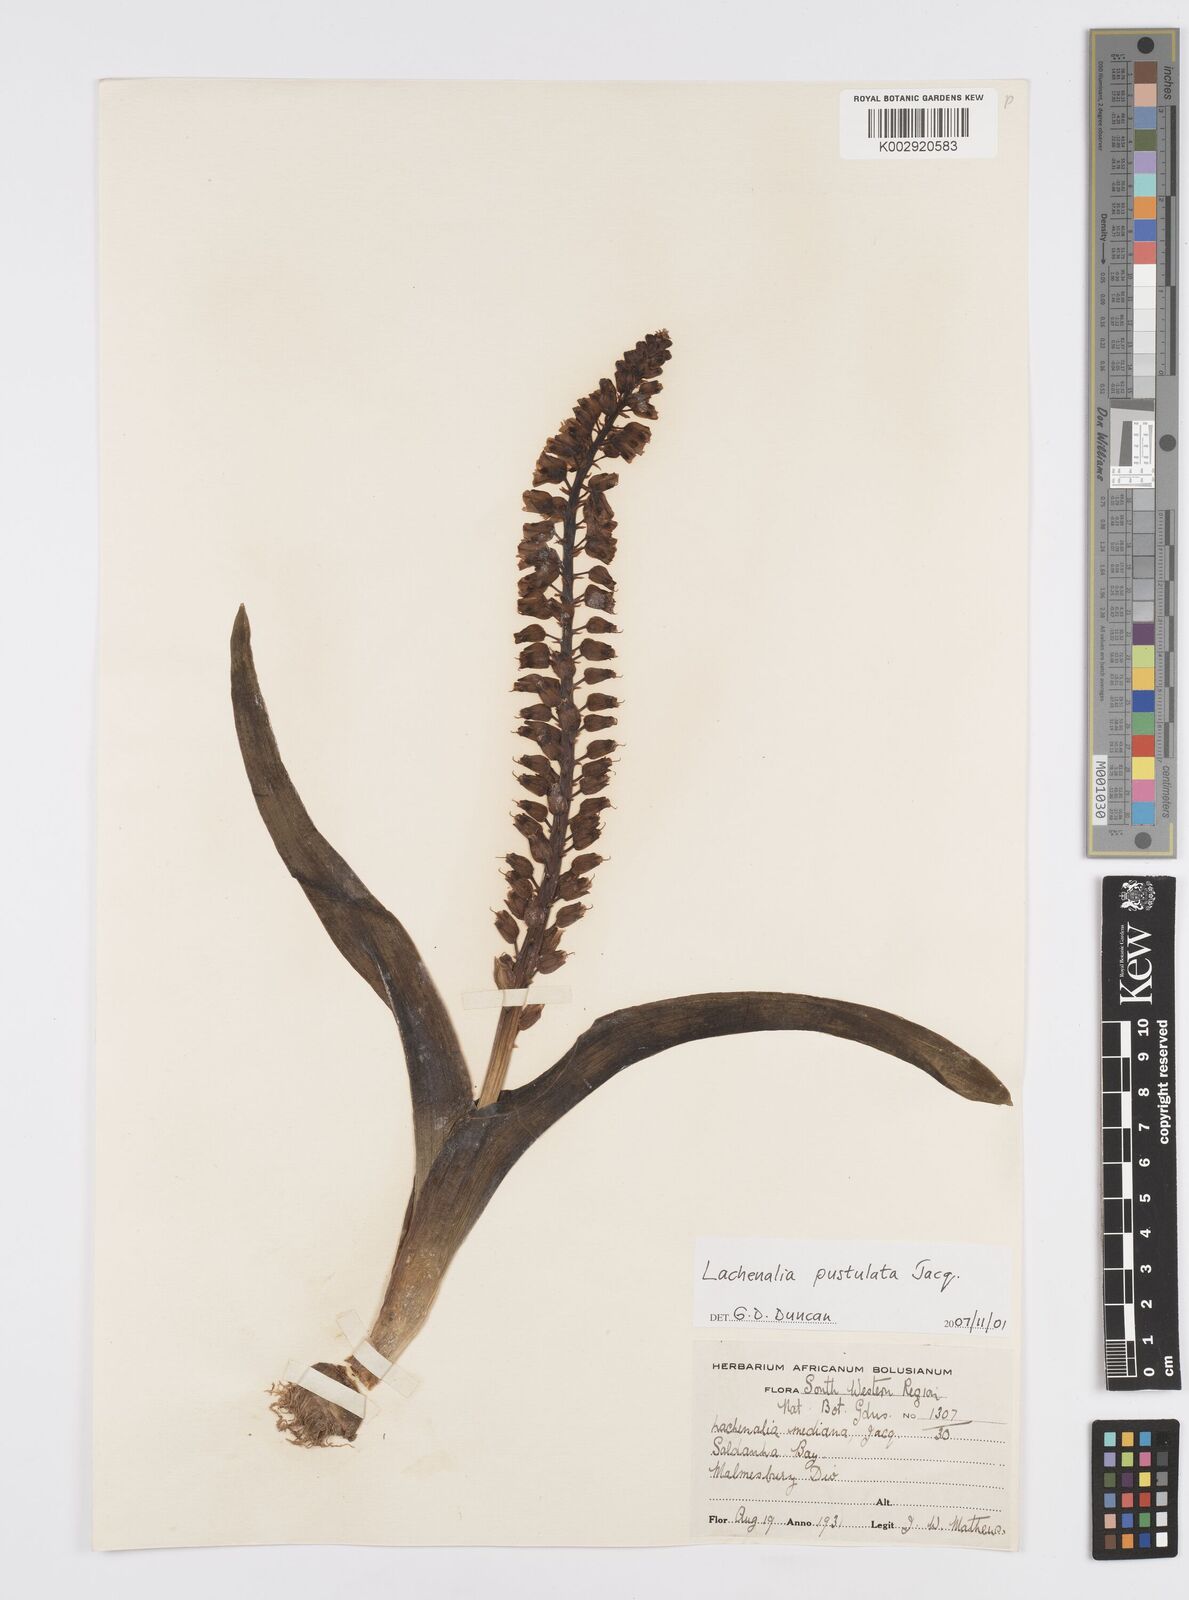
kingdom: Plantae
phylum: Tracheophyta
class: Liliopsida
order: Asparagales
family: Asparagaceae
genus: Lachenalia
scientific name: Lachenalia pallida
